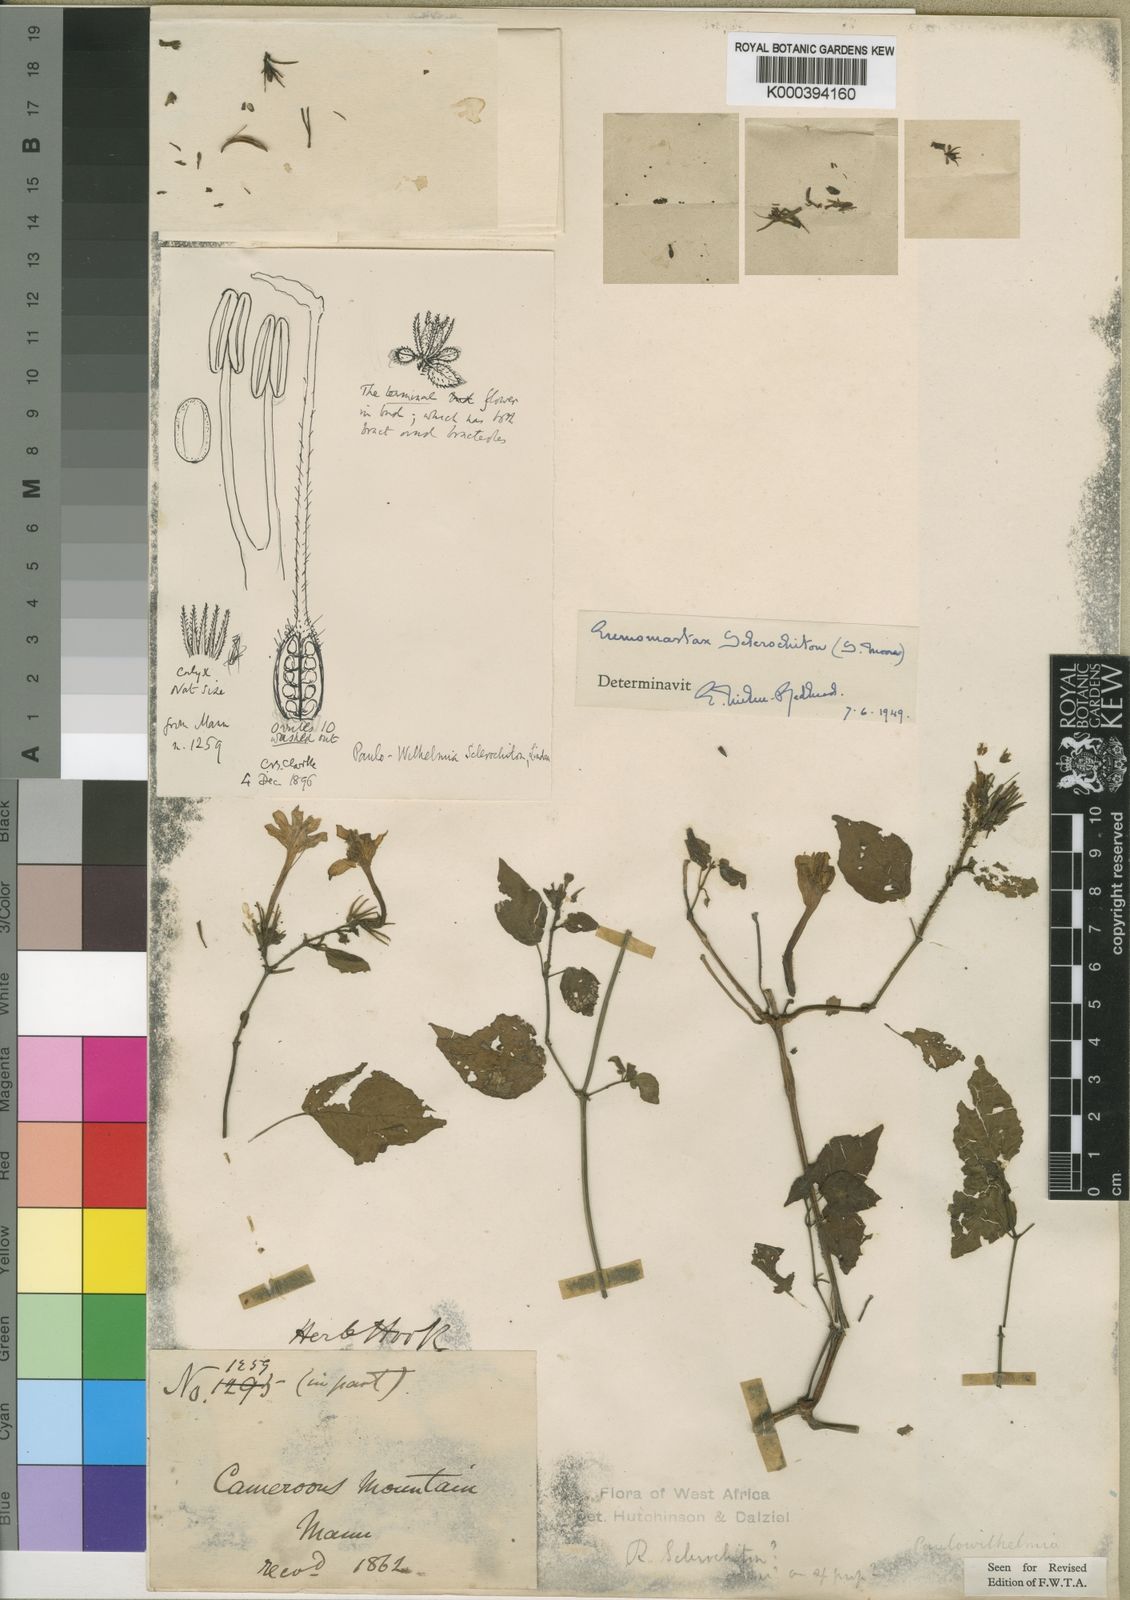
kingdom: Plantae
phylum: Tracheophyta
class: Magnoliopsida
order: Lamiales
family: Acanthaceae
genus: Eremomastax
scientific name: Eremomastax speciosa
